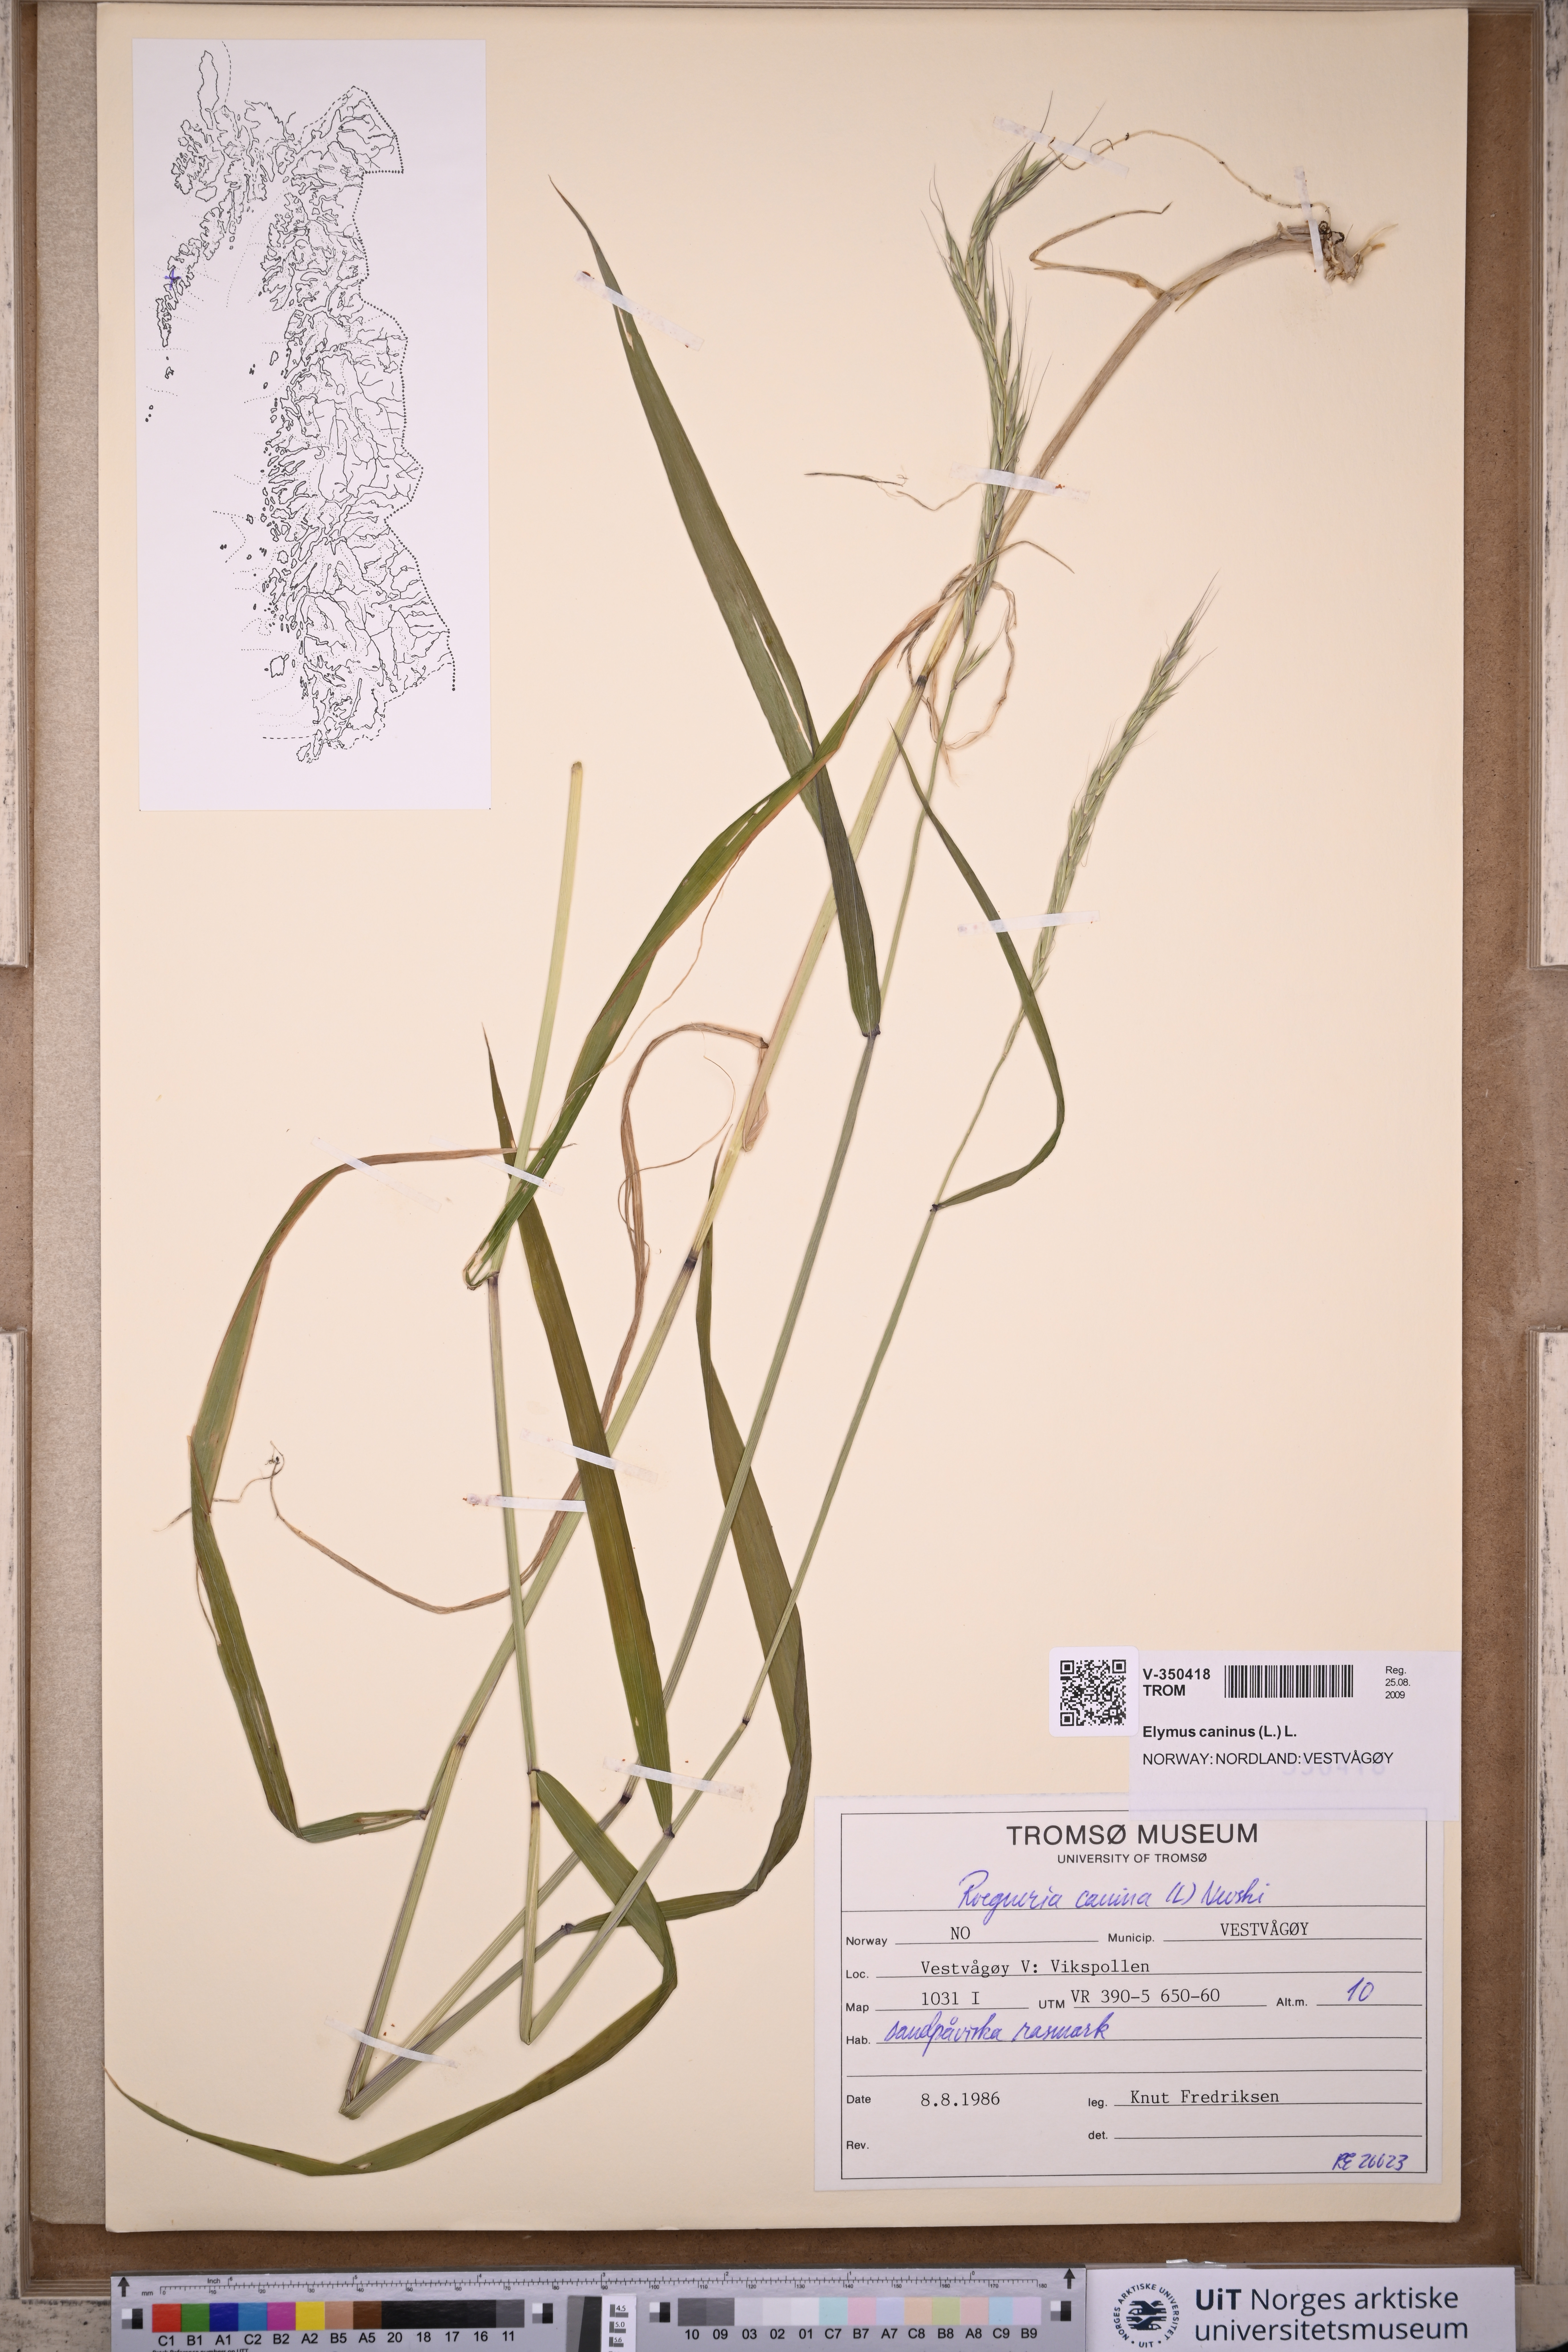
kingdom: Plantae
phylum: Tracheophyta
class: Liliopsida
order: Poales
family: Poaceae
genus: Elymus
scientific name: Elymus caninus
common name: Bearded couch
